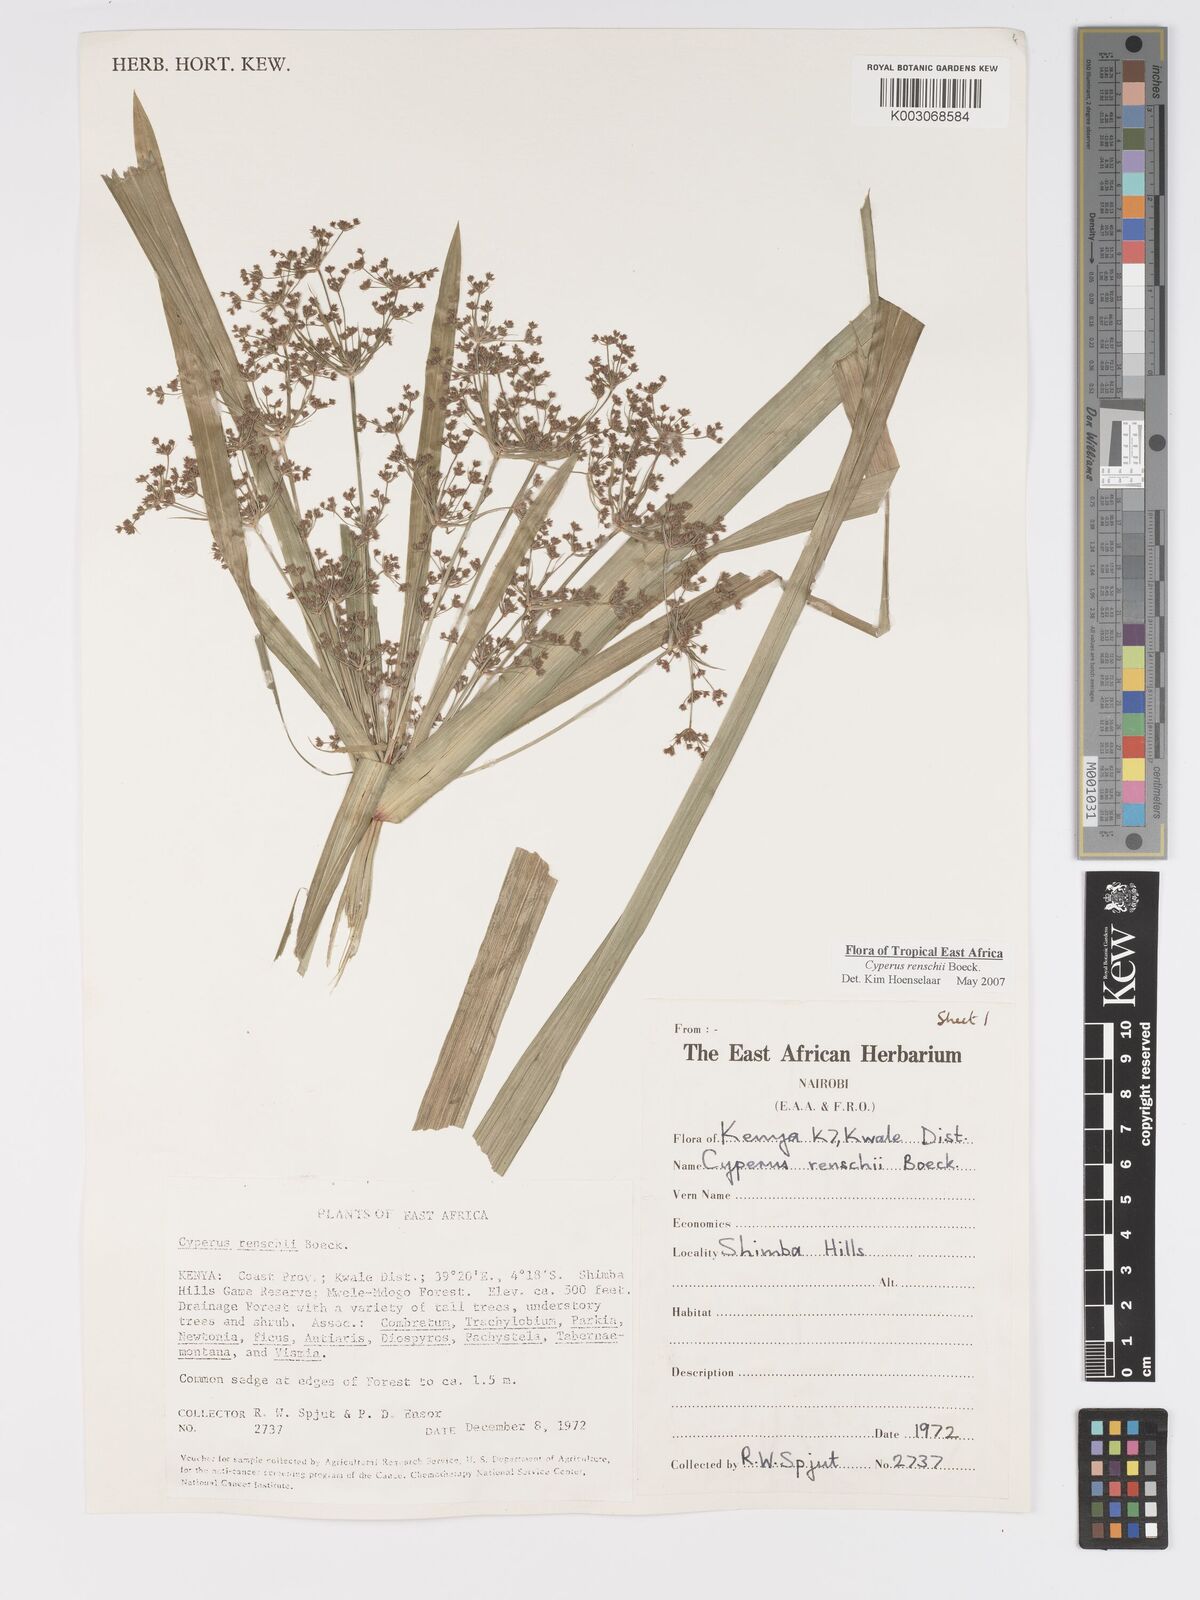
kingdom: Plantae
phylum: Tracheophyta
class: Liliopsida
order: Poales
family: Cyperaceae
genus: Cyperus
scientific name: Cyperus renschii
